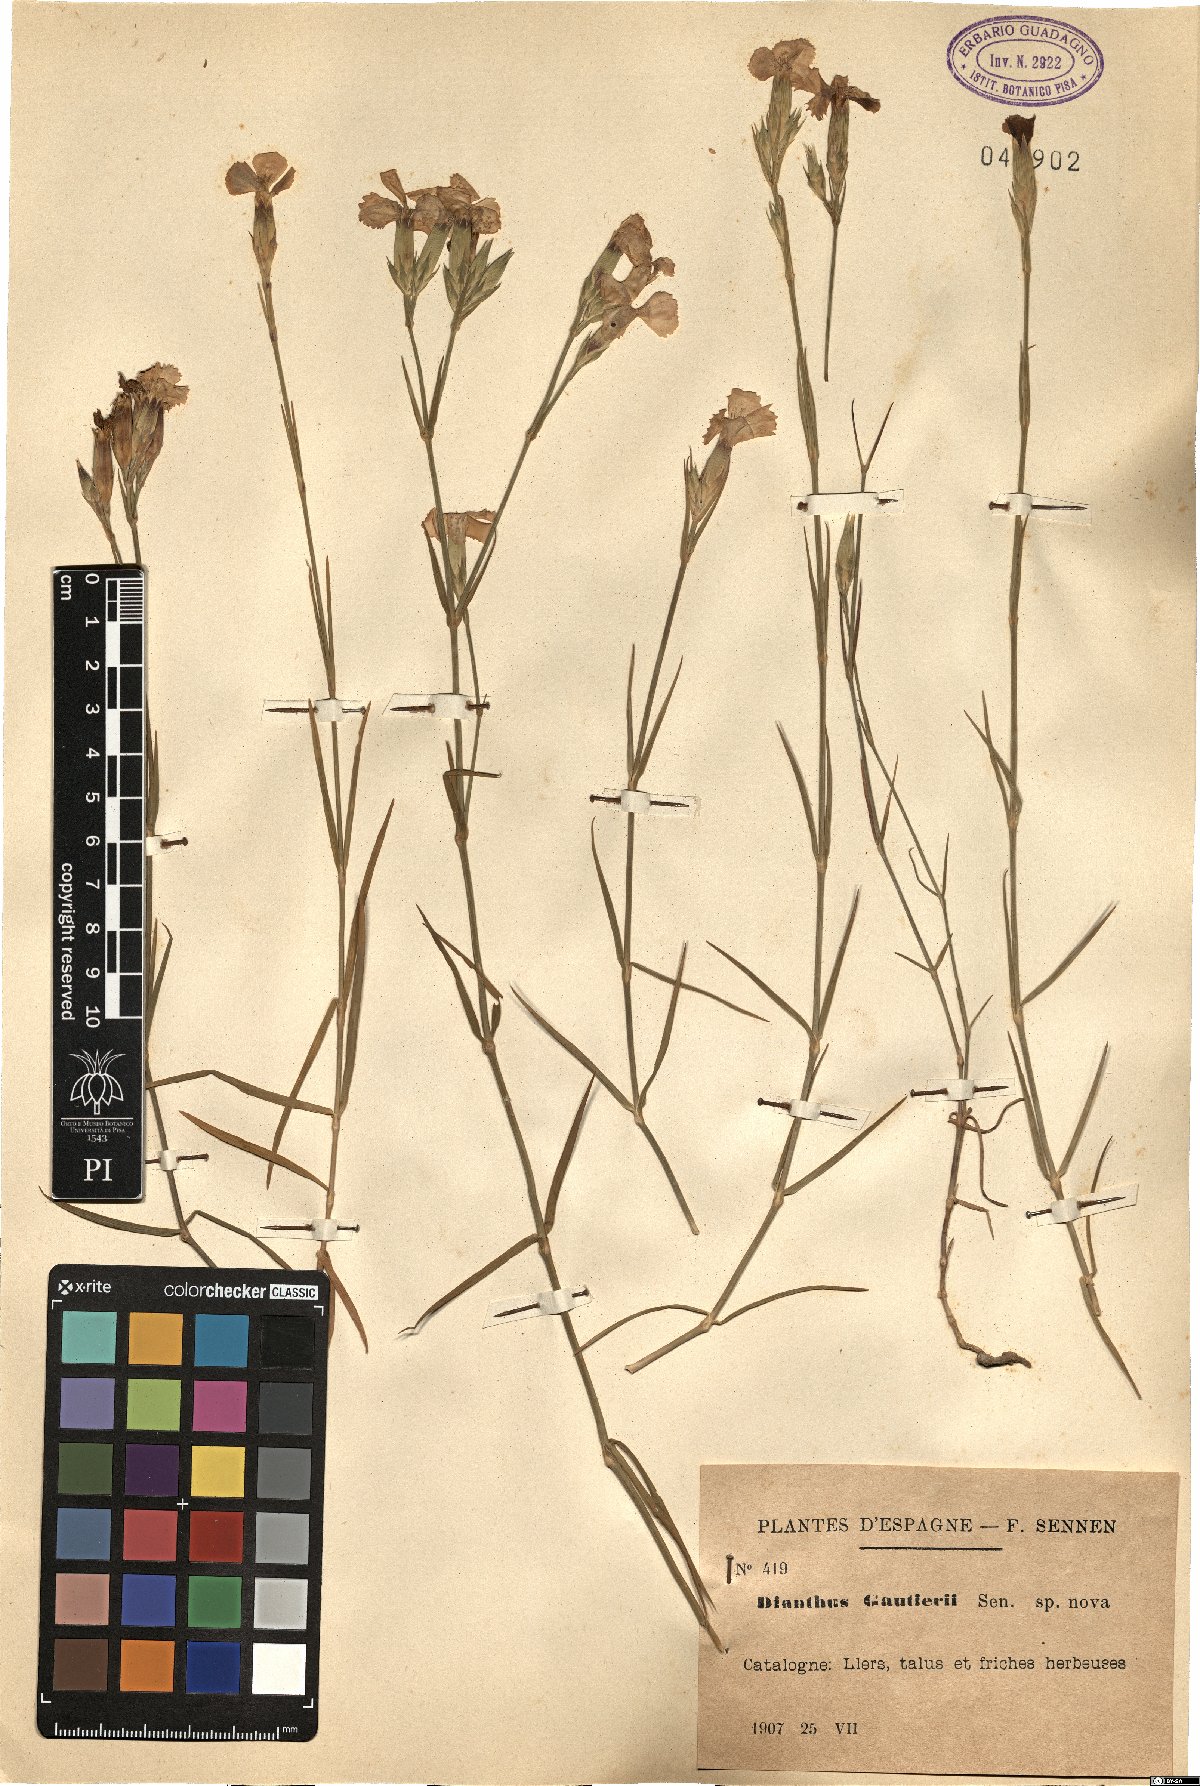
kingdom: Plantae
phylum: Tracheophyta
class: Magnoliopsida
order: Caryophyllales
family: Caryophyllaceae
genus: Dianthus
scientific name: Dianthus seguieri
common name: Ragged pink
